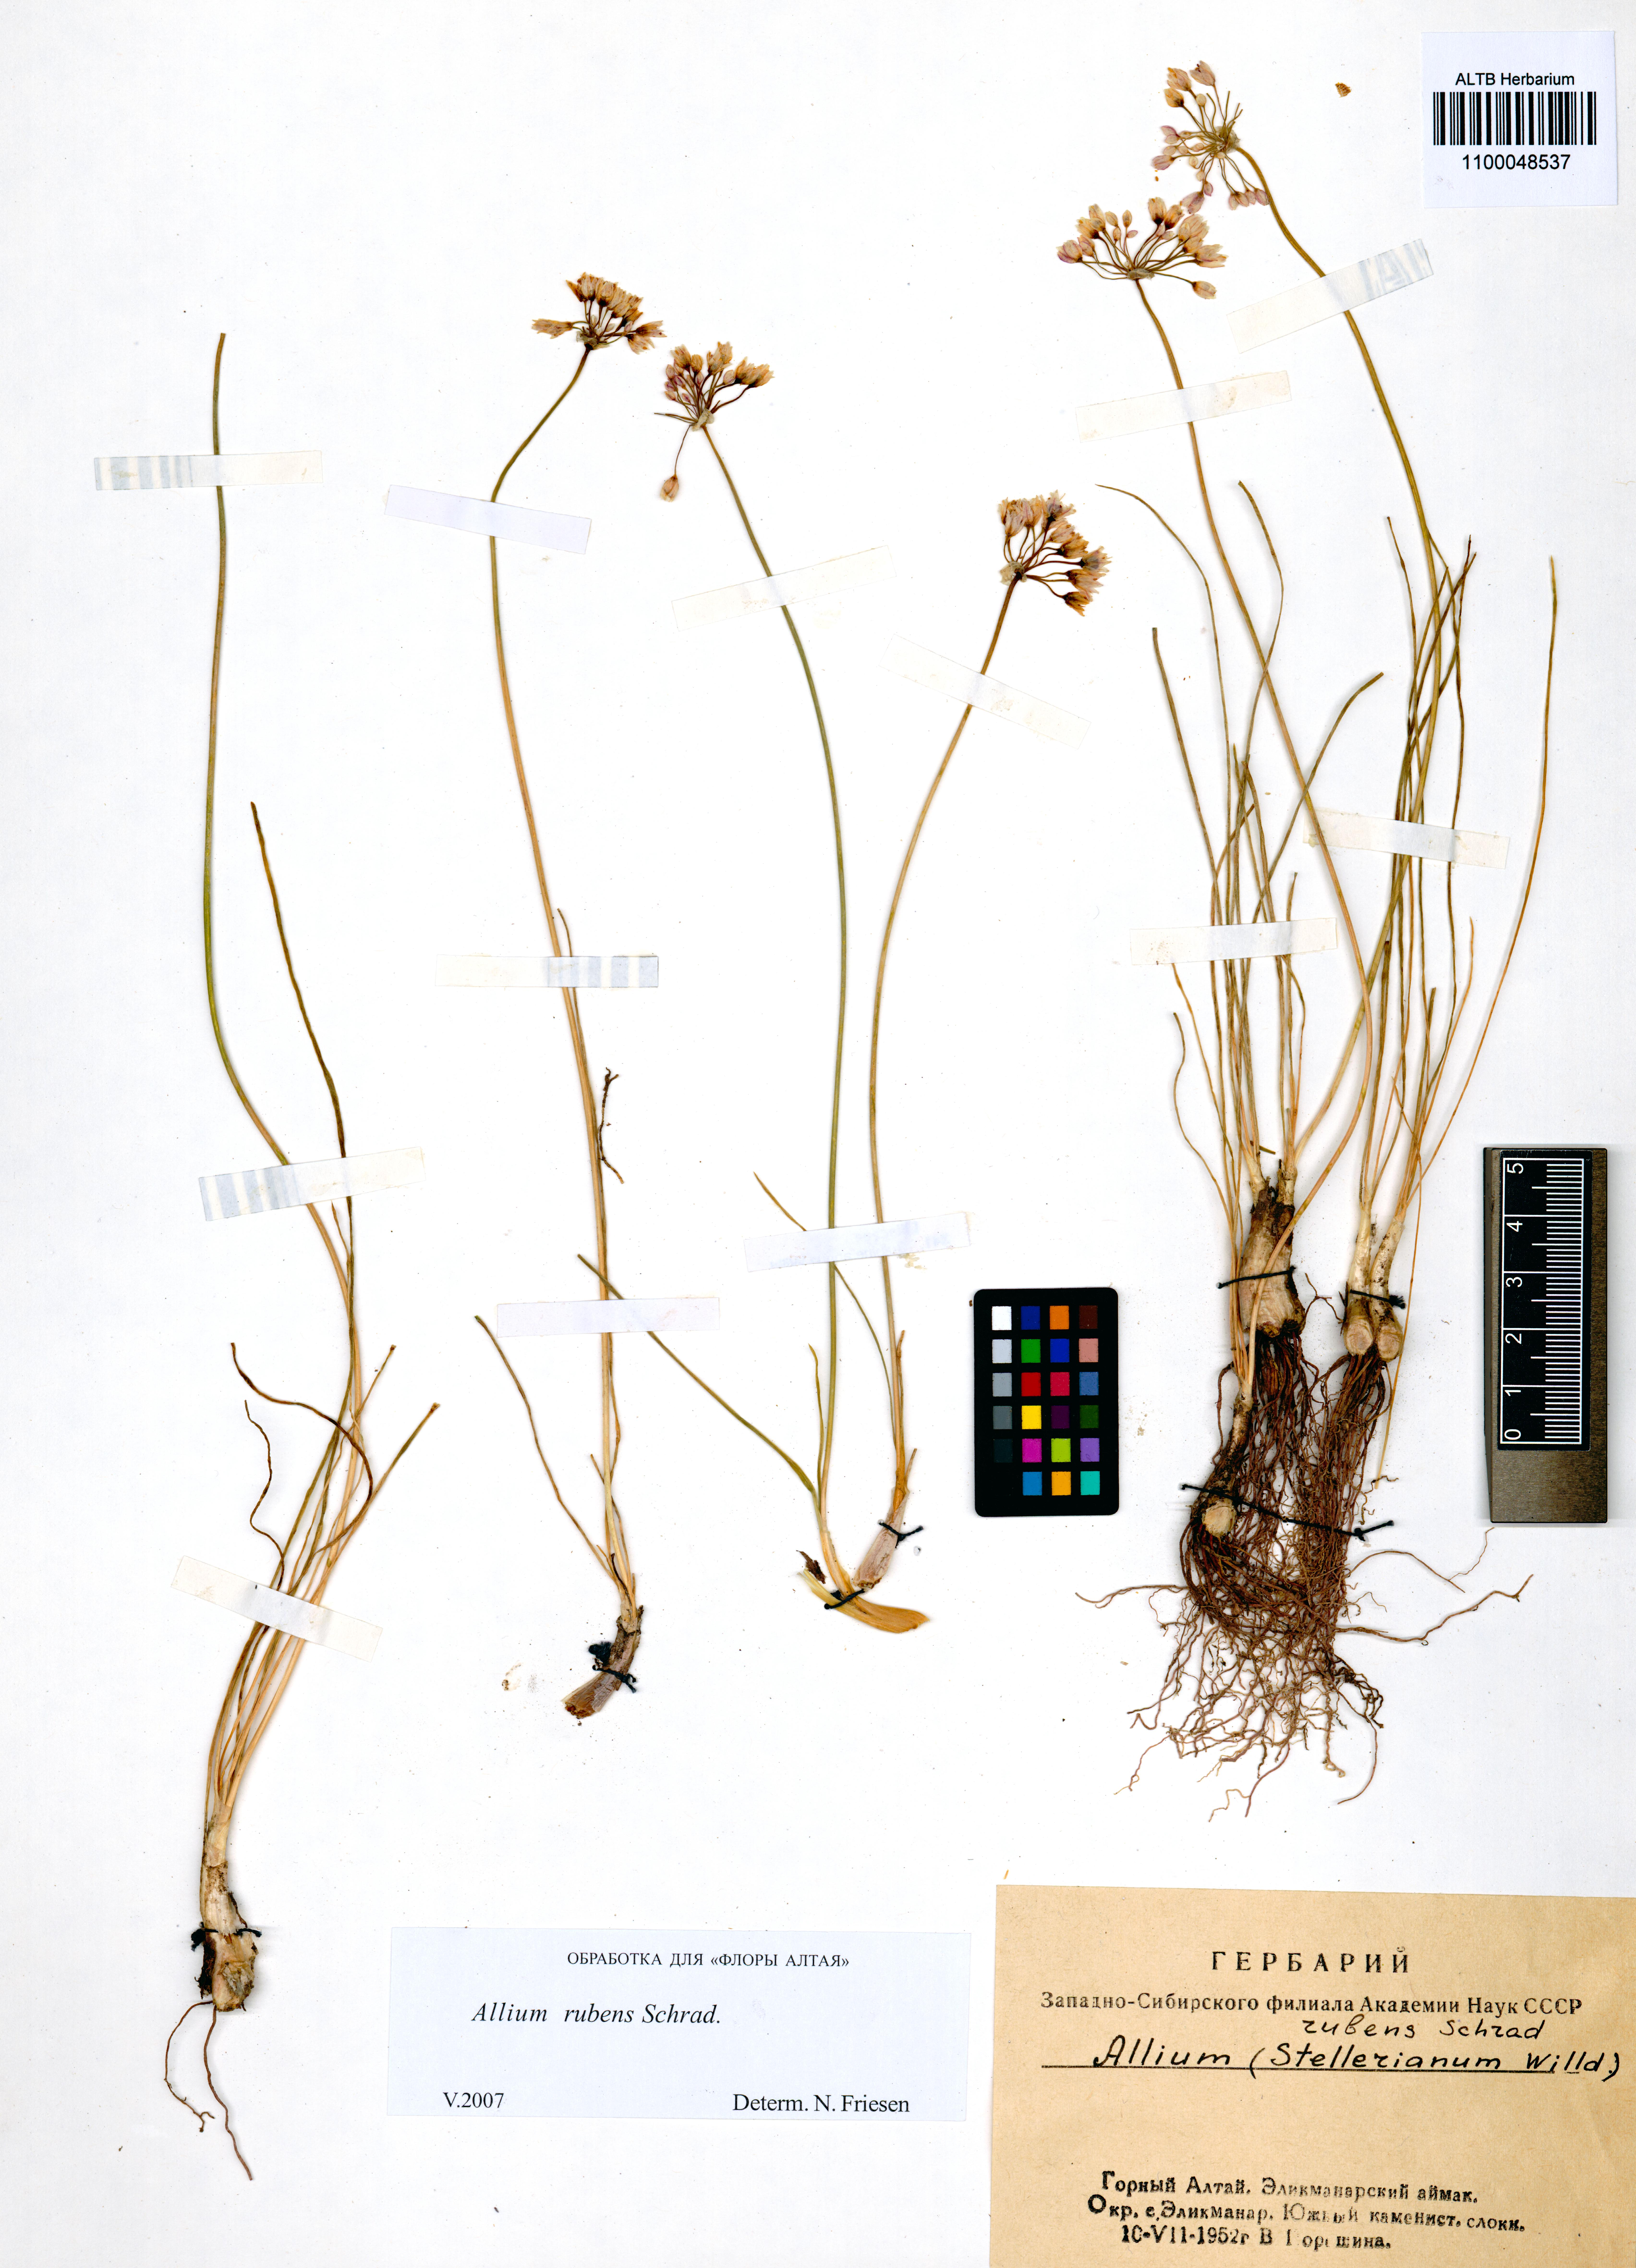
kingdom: Plantae
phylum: Tracheophyta
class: Liliopsida
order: Asparagales
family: Amaryllidaceae
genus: Allium
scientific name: Allium rubens
